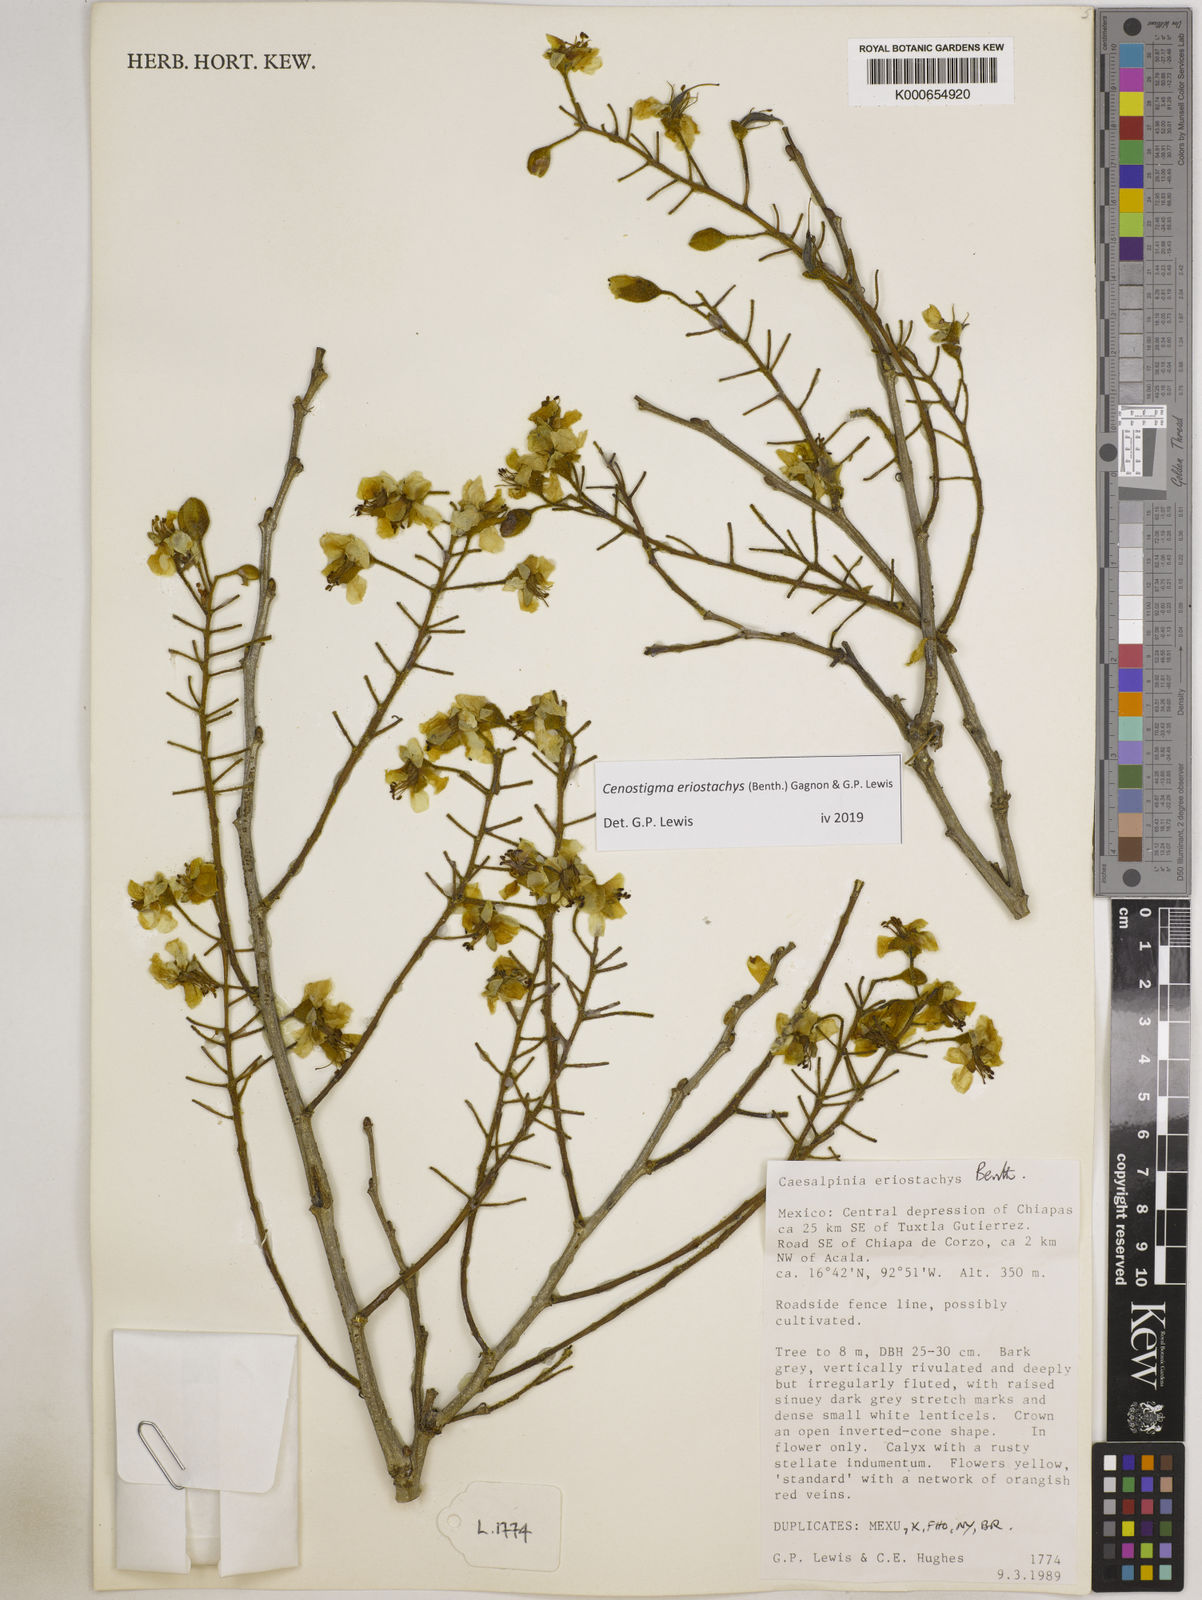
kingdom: Plantae
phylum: Tracheophyta
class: Magnoliopsida
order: Fabales
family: Fabaceae
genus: Cenostigma
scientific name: Cenostigma eriostachys
